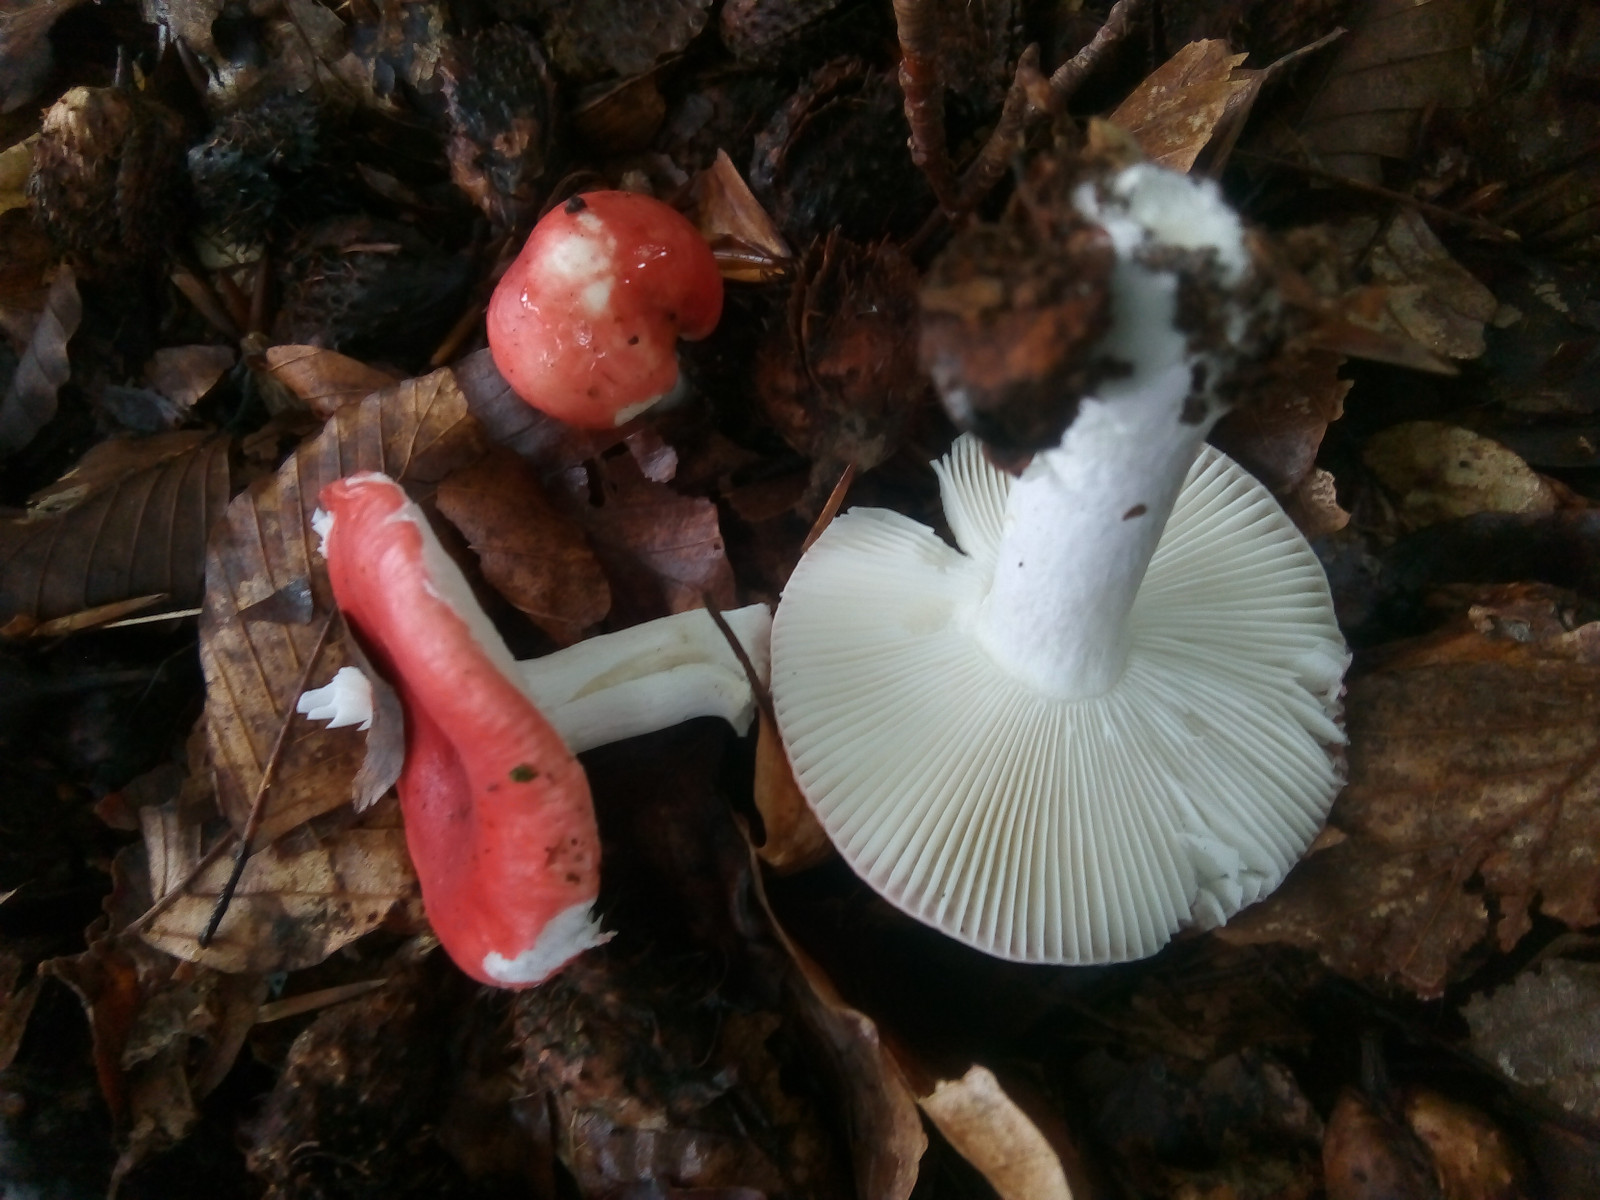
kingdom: Fungi
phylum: Basidiomycota
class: Agaricomycetes
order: Russulales
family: Russulaceae
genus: Russula
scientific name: Russula nobilis
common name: lille gift-skørhat
